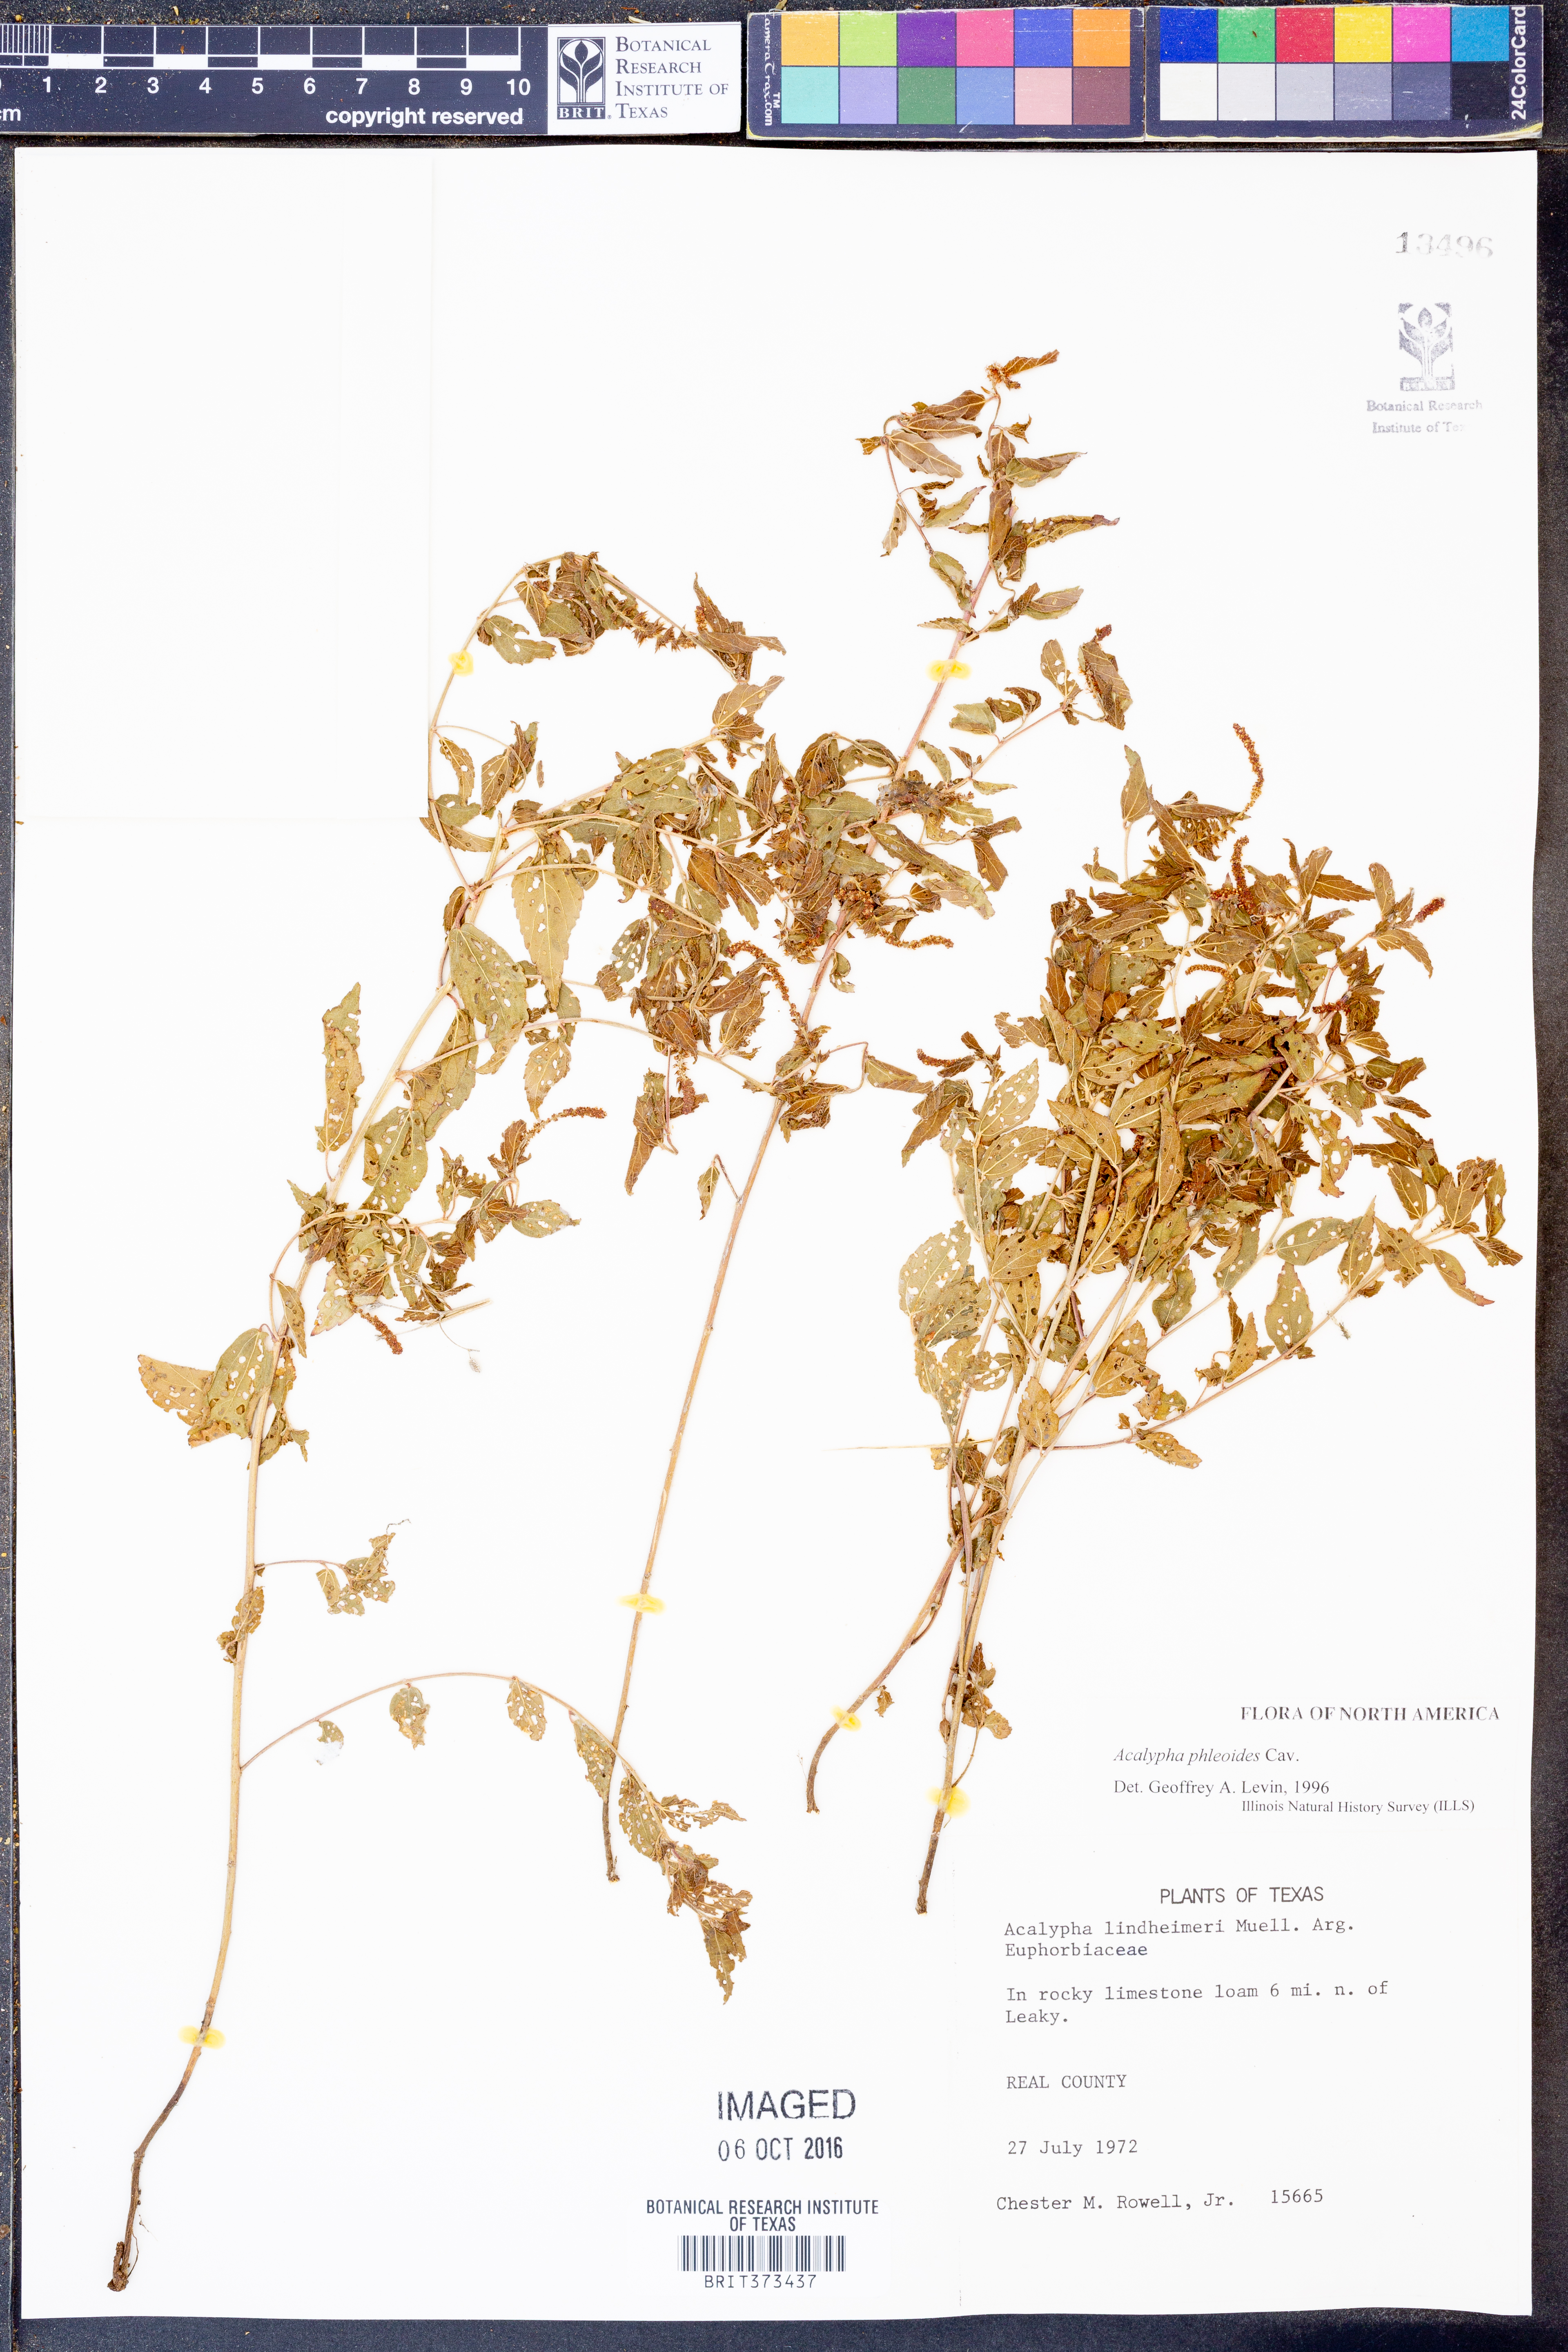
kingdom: Plantae
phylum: Tracheophyta
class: Magnoliopsida
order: Malpighiales
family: Euphorbiaceae
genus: Acalypha
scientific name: Acalypha phleoides
